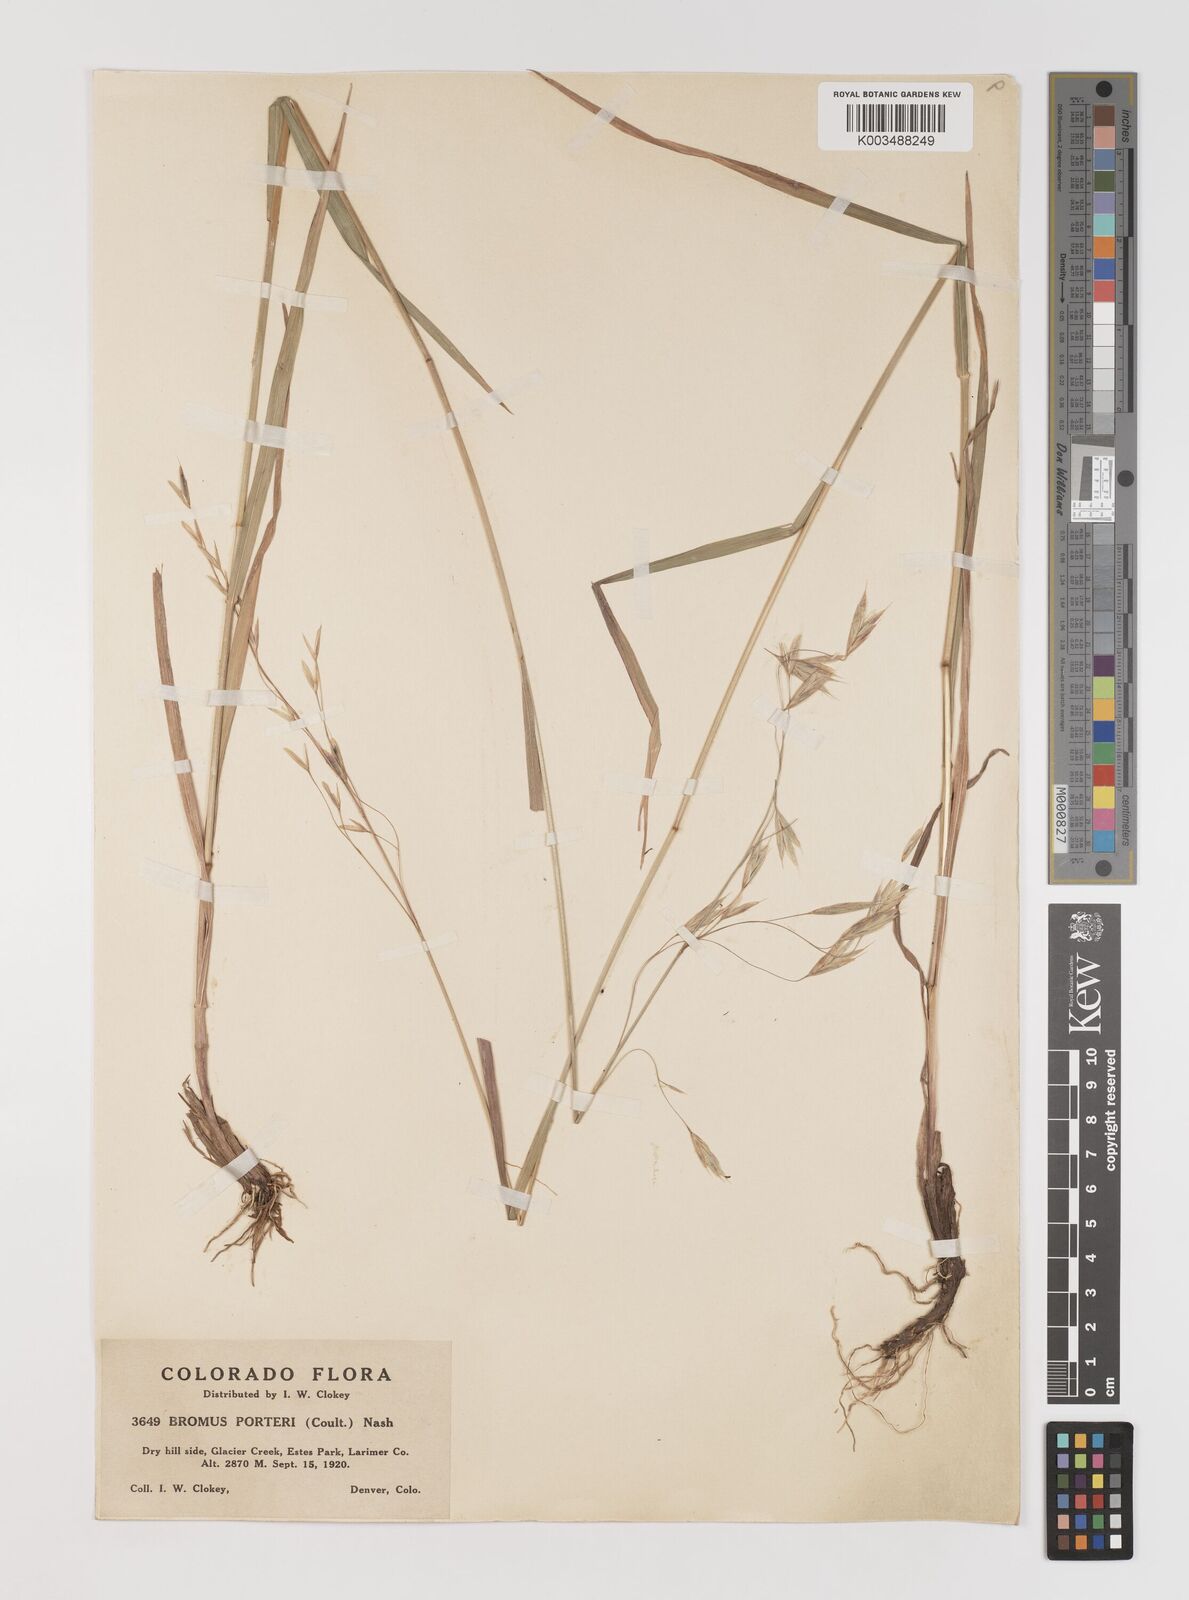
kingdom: Plantae
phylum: Tracheophyta
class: Liliopsida
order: Poales
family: Poaceae
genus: Bromus
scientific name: Bromus porteri
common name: Nodding brome
